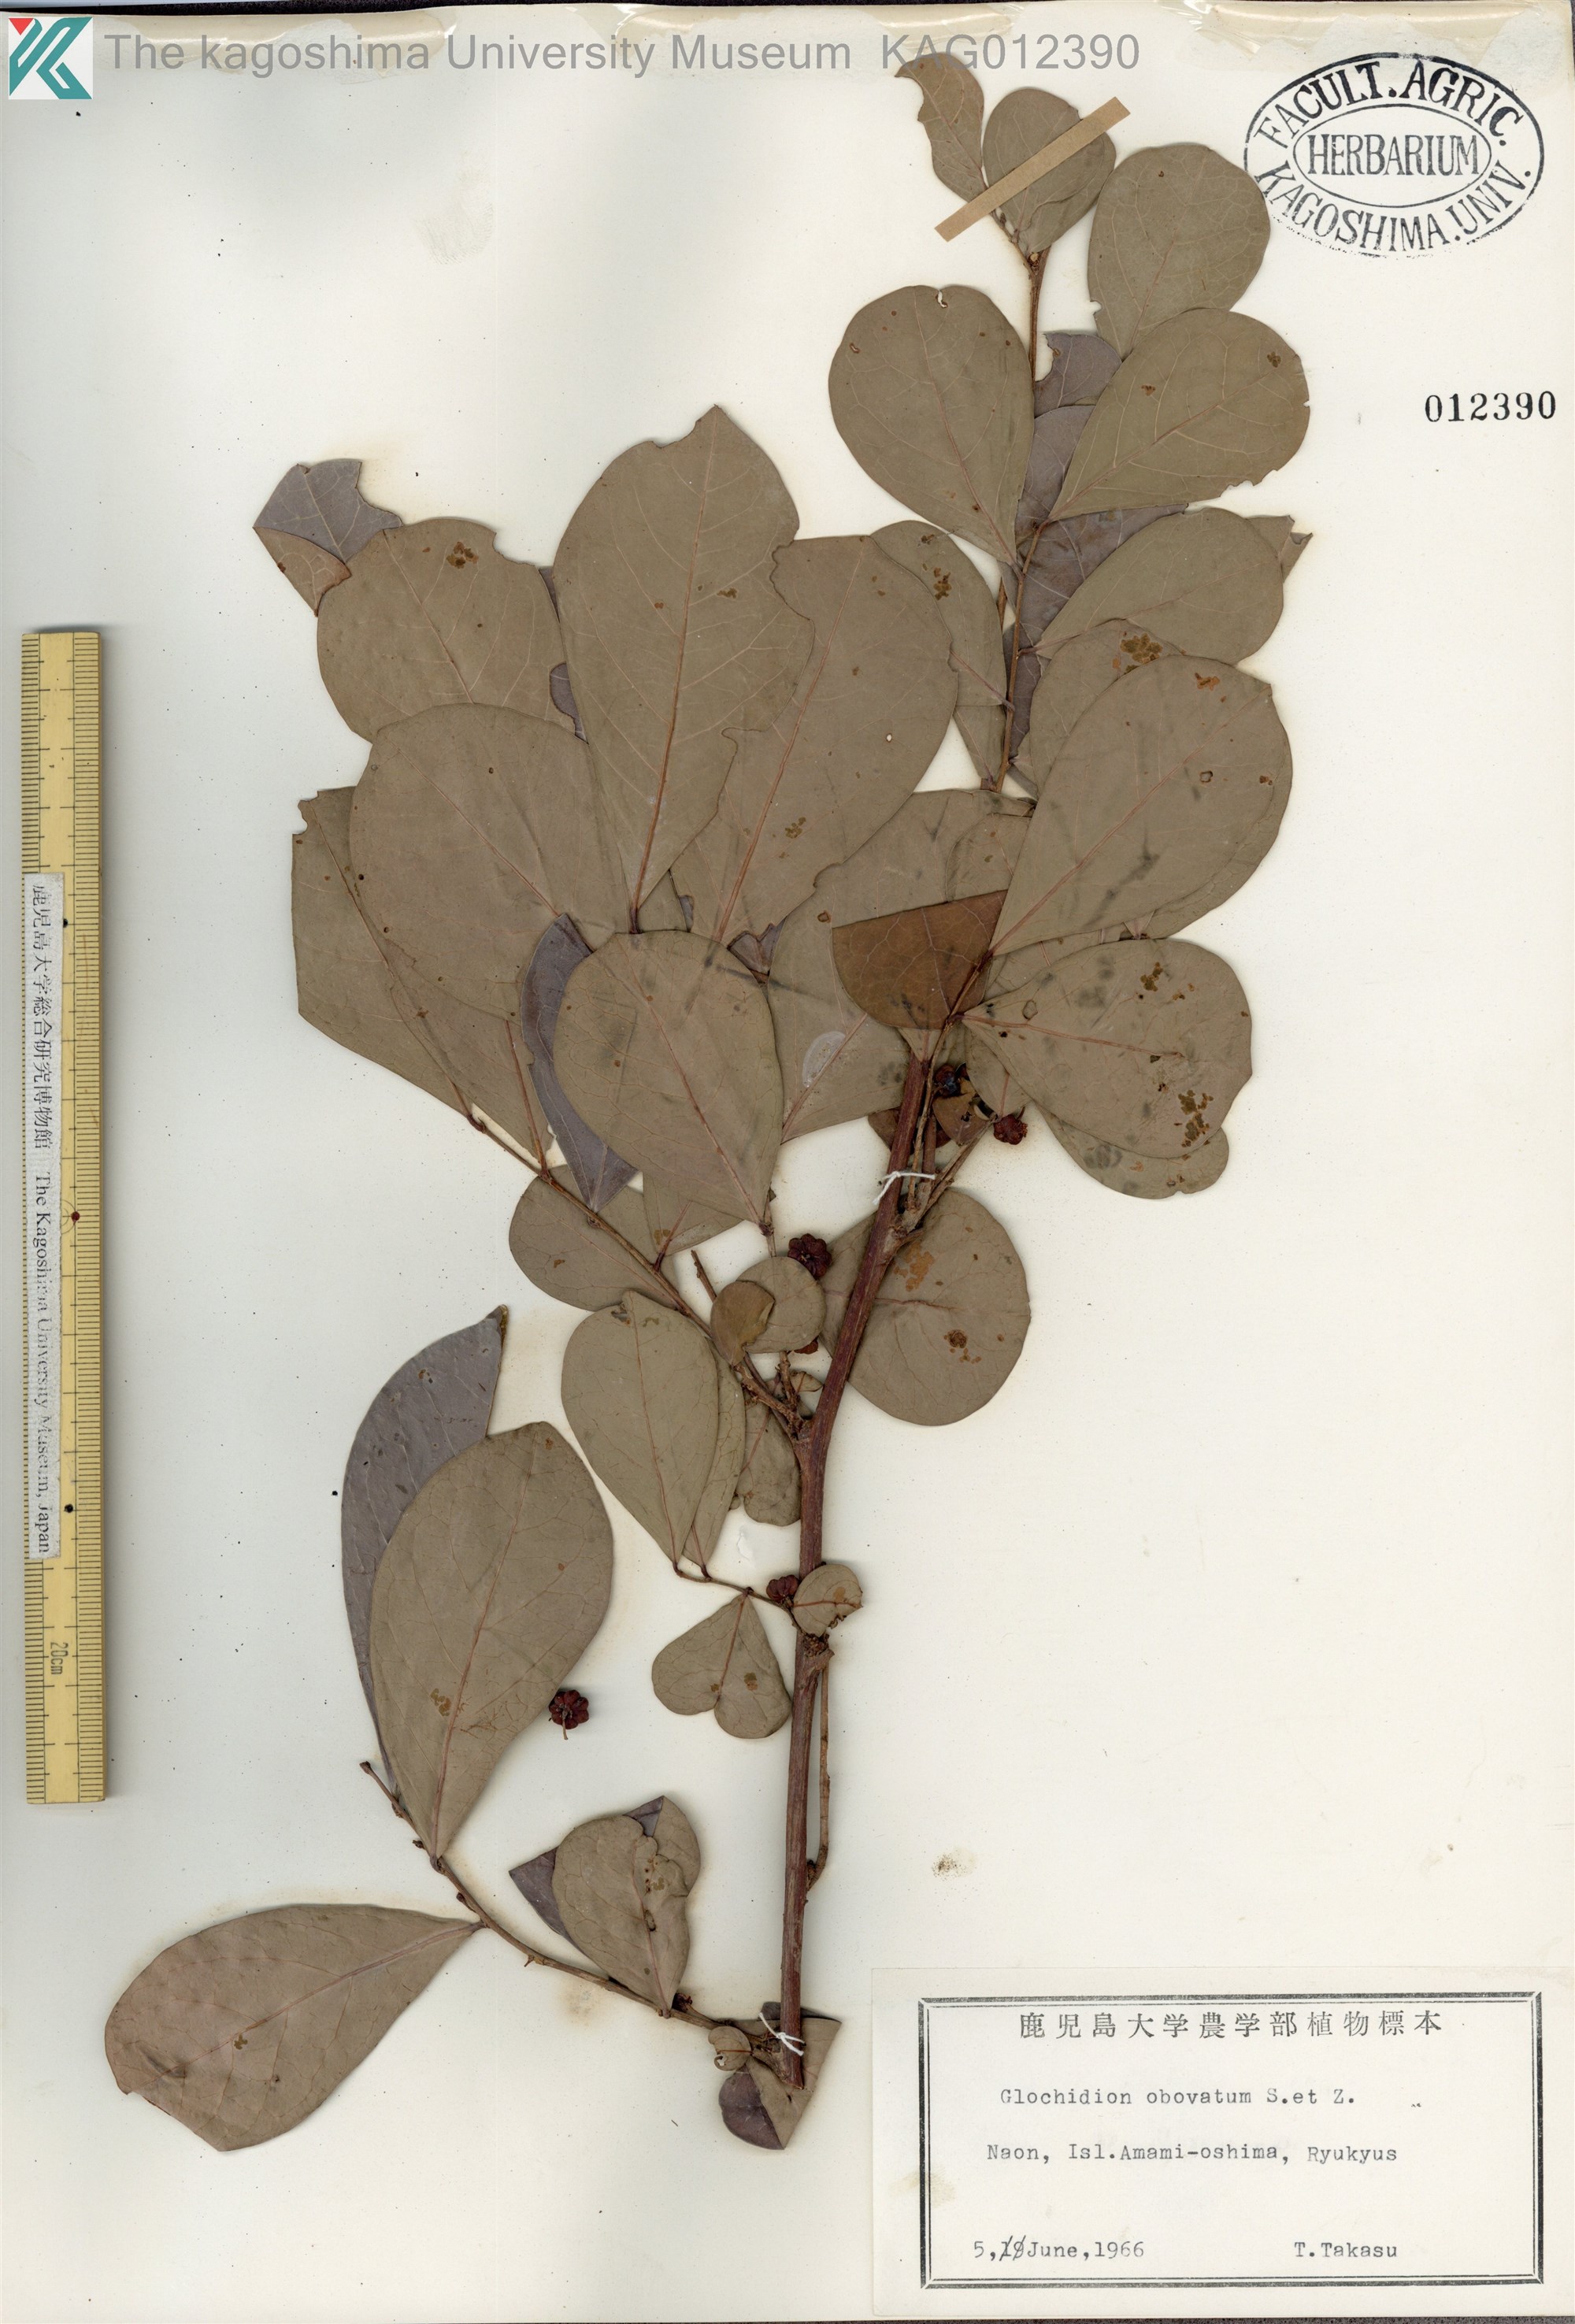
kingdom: Plantae
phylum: Tracheophyta
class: Magnoliopsida
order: Malpighiales
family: Phyllanthaceae
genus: Glochidion
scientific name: Glochidion obovatum
